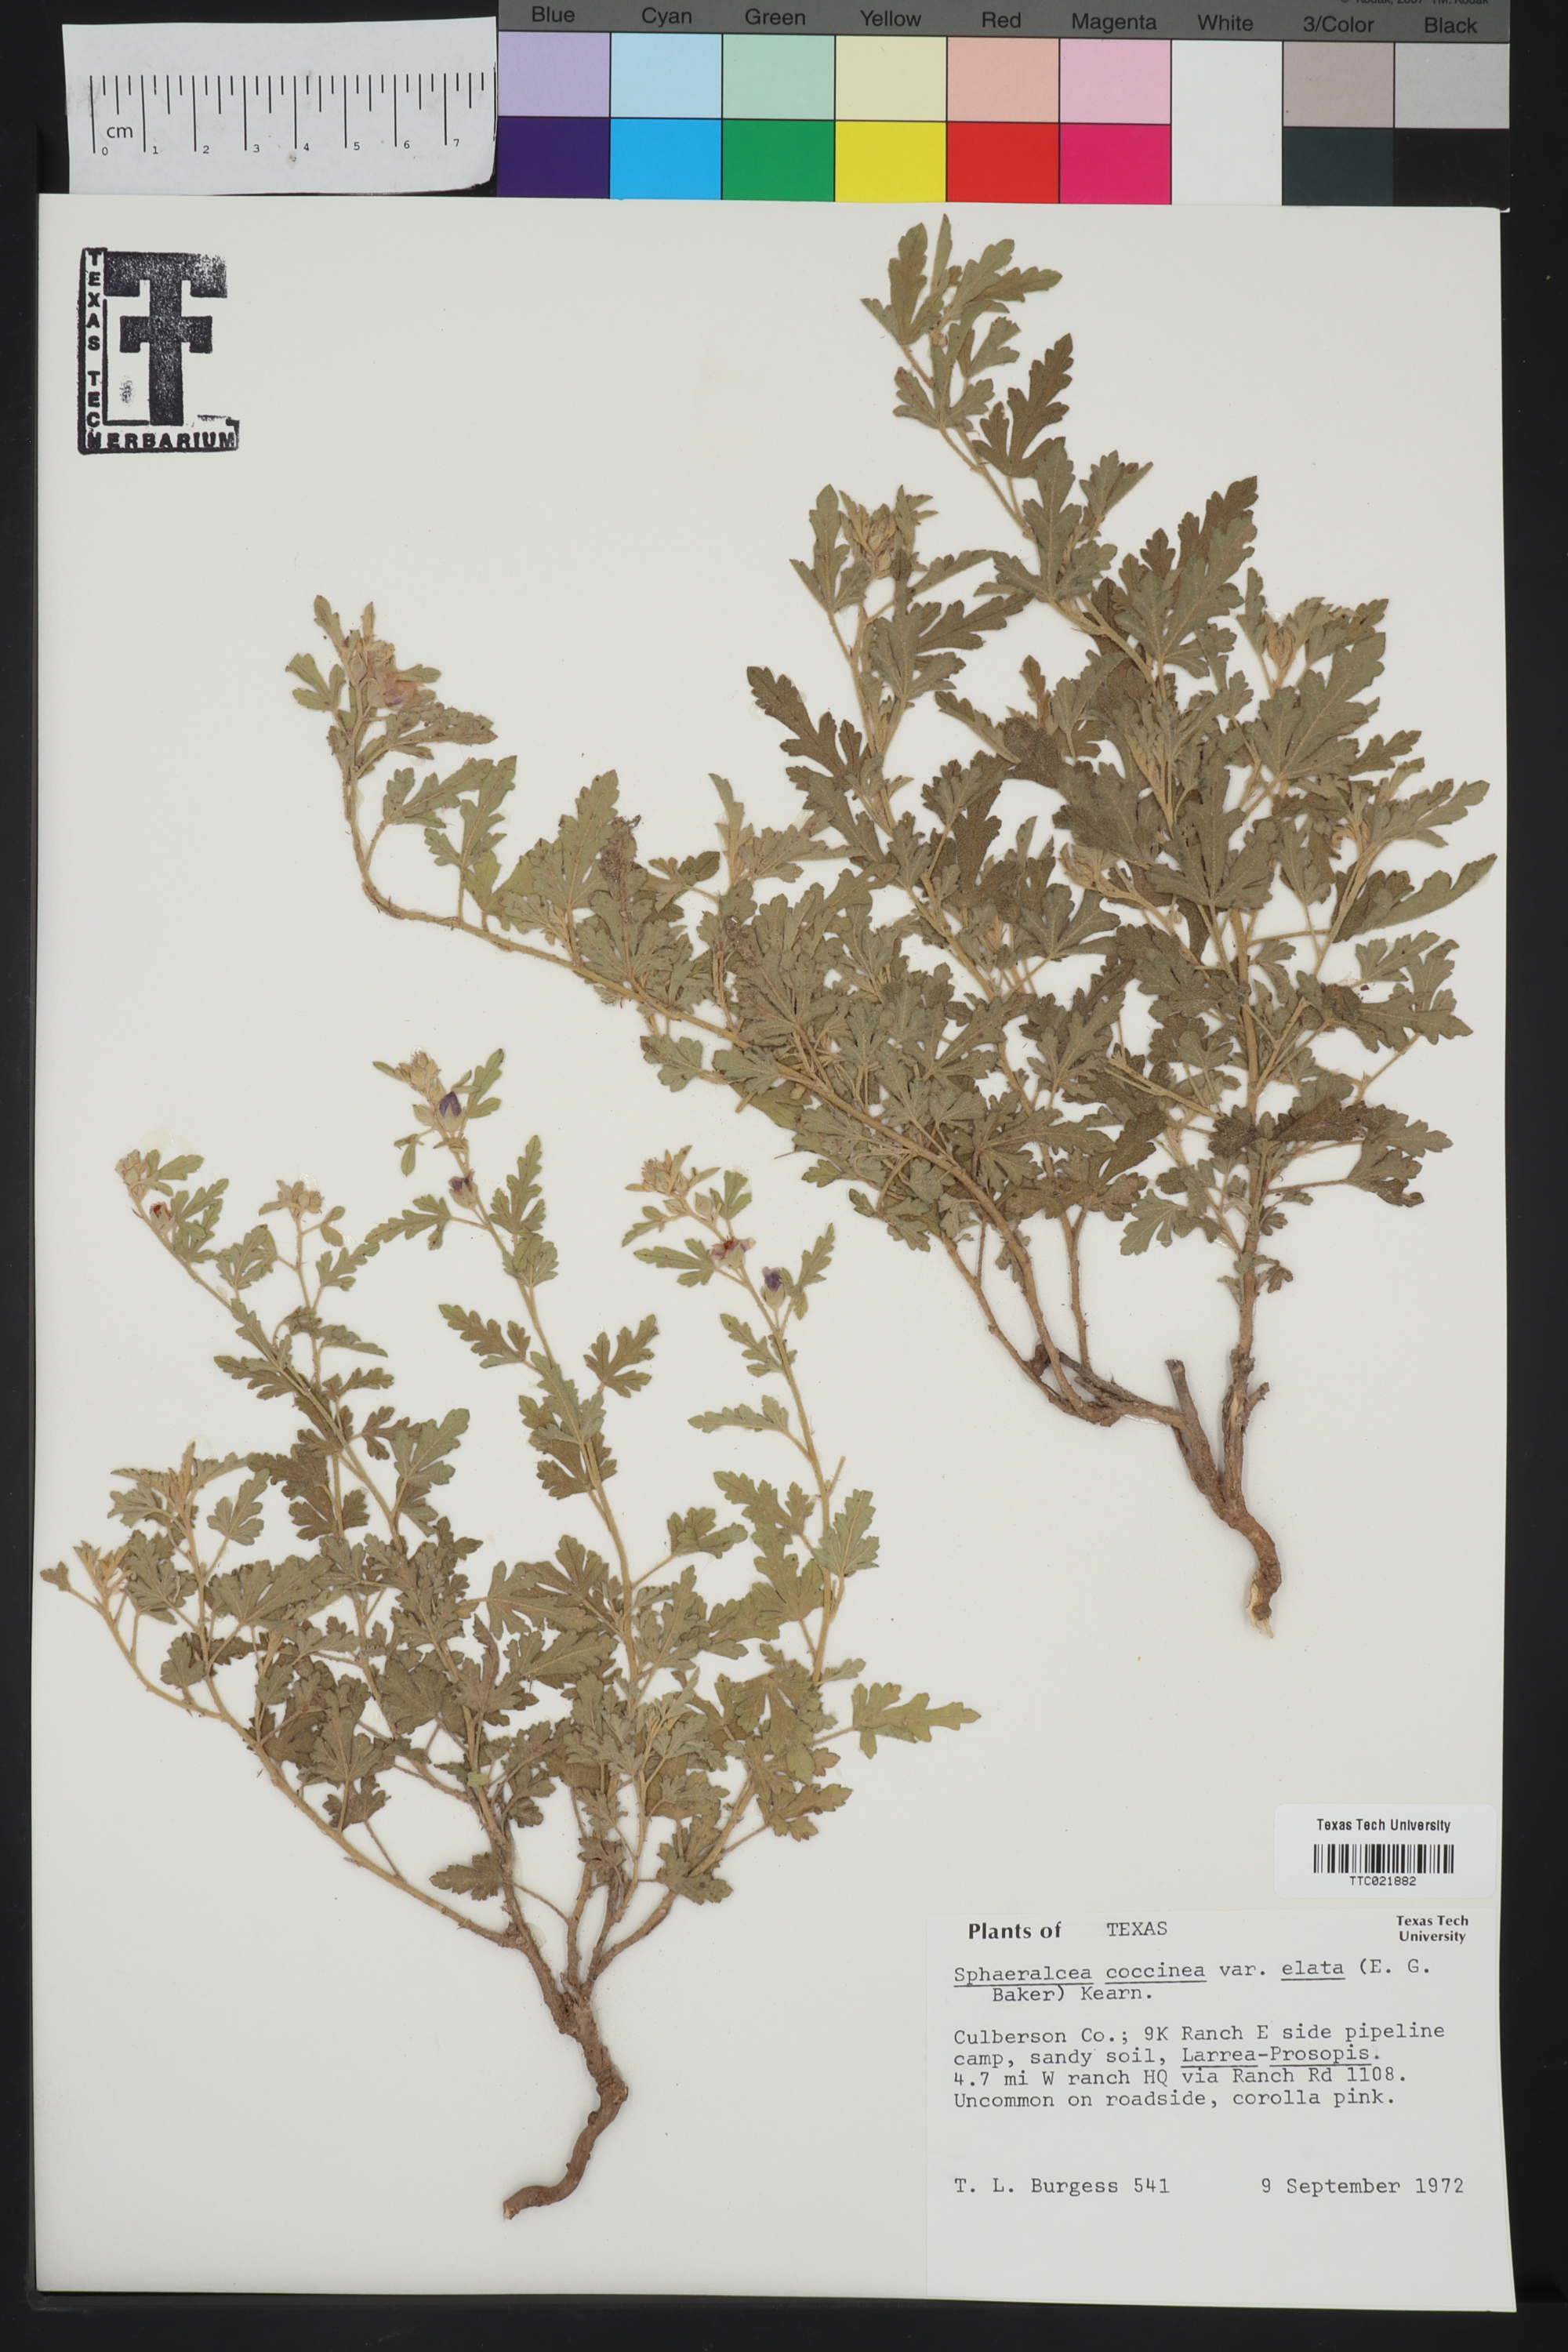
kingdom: Plantae
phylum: Tracheophyta
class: Magnoliopsida
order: Malvales
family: Malvaceae
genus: Sphaeralcea
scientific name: Sphaeralcea coccinea
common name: Moss-rose
